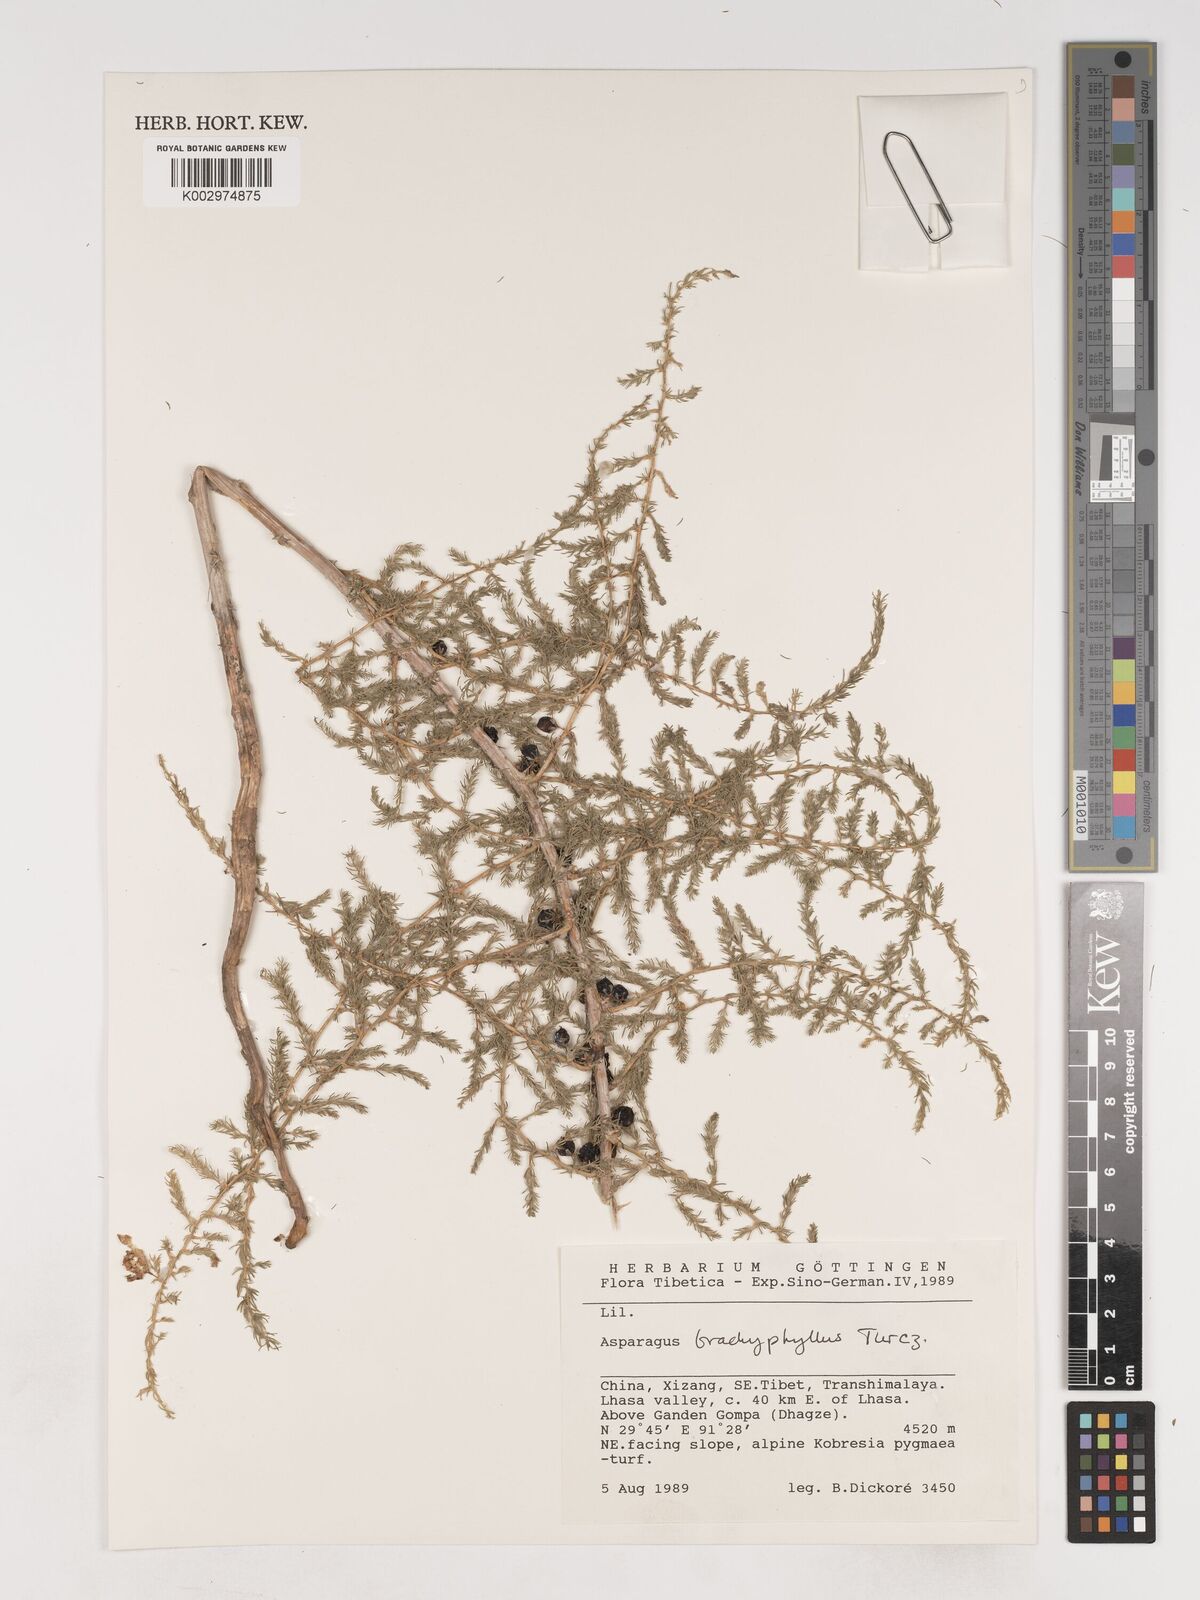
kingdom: Plantae
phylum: Tracheophyta
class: Liliopsida
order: Asparagales
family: Asparagaceae
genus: Asparagus
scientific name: Asparagus trichophyllus
